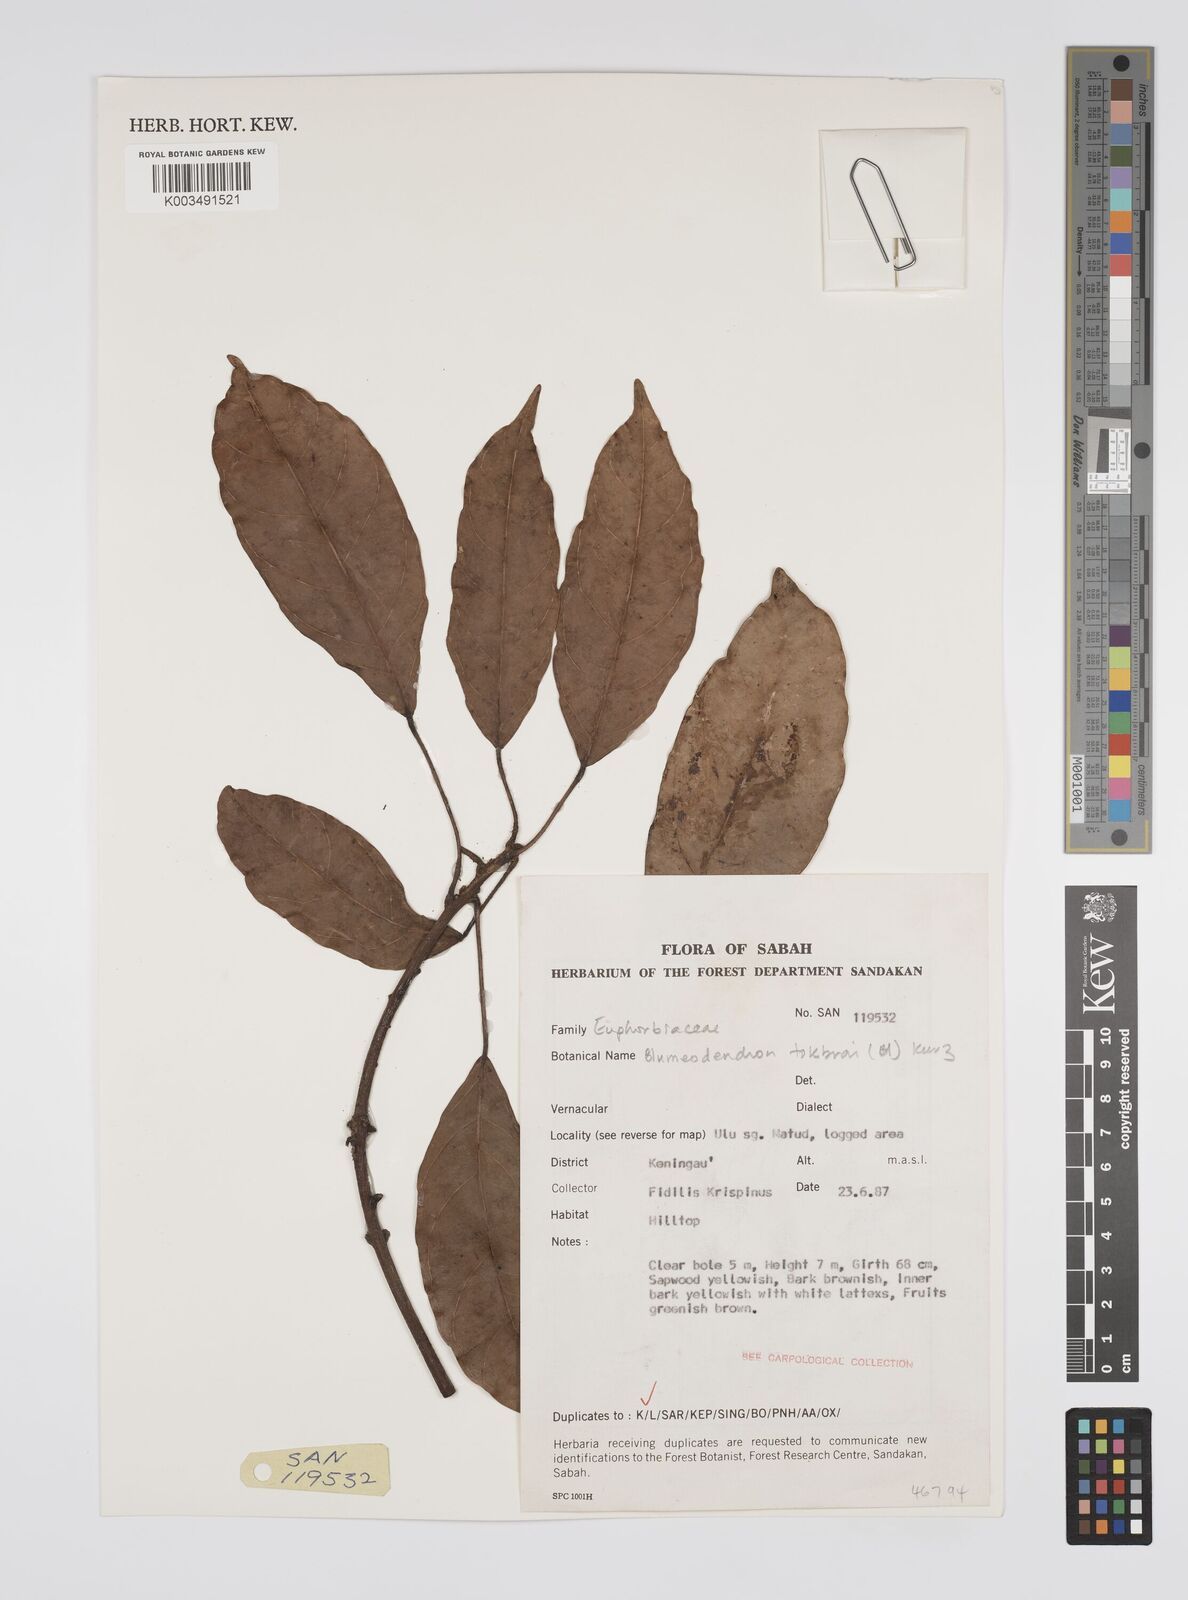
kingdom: Plantae
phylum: Tracheophyta
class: Magnoliopsida
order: Malpighiales
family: Euphorbiaceae
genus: Blumeodendron
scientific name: Blumeodendron tokbrai
